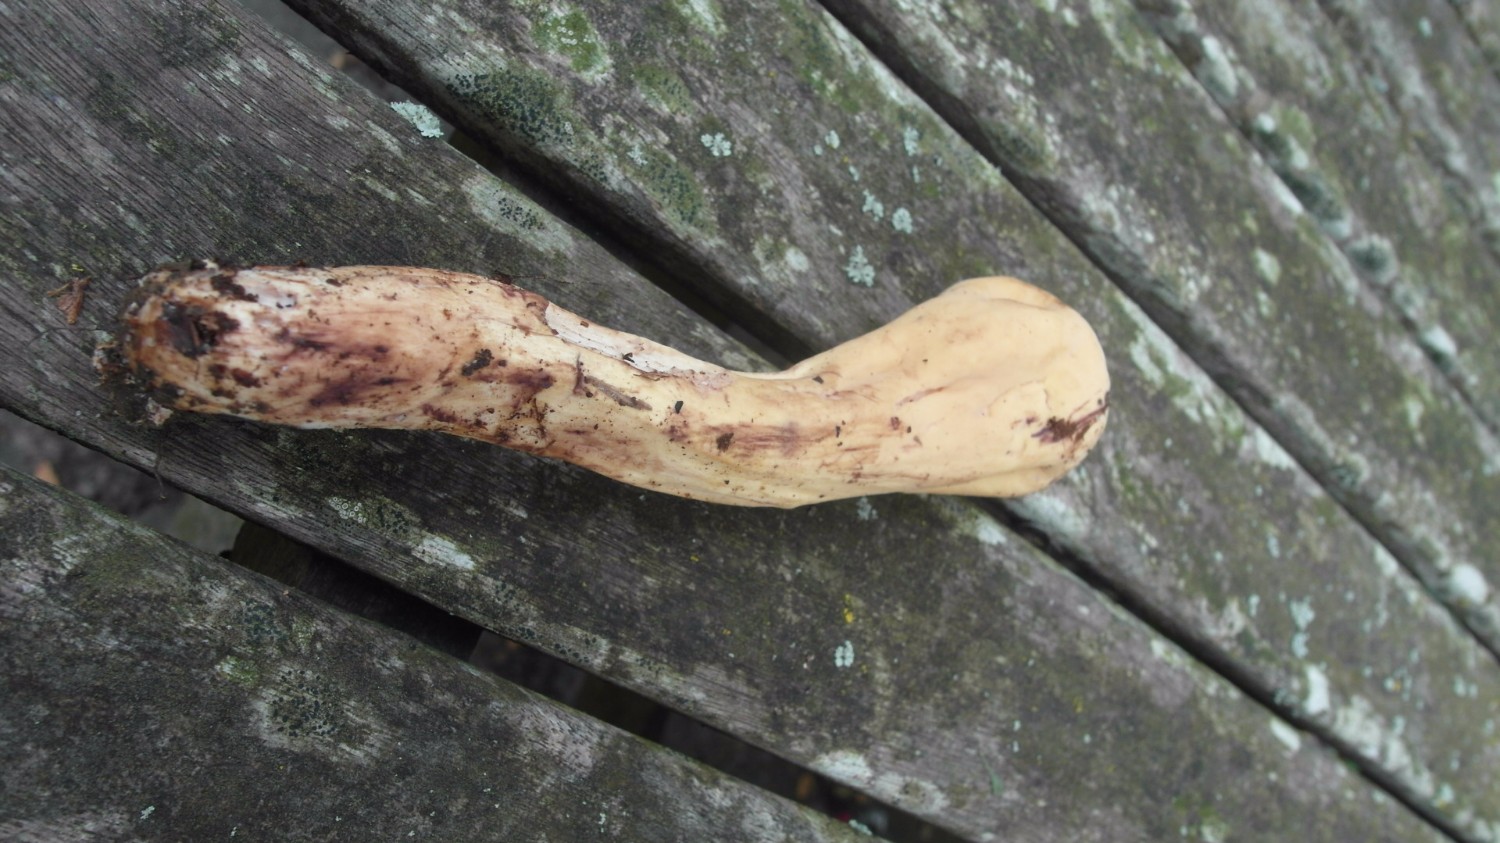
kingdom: Fungi
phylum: Basidiomycota
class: Agaricomycetes
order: Gomphales
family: Clavariadelphaceae
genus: Clavariadelphus
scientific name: Clavariadelphus pistillaris
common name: herkules-kæmpekølle
